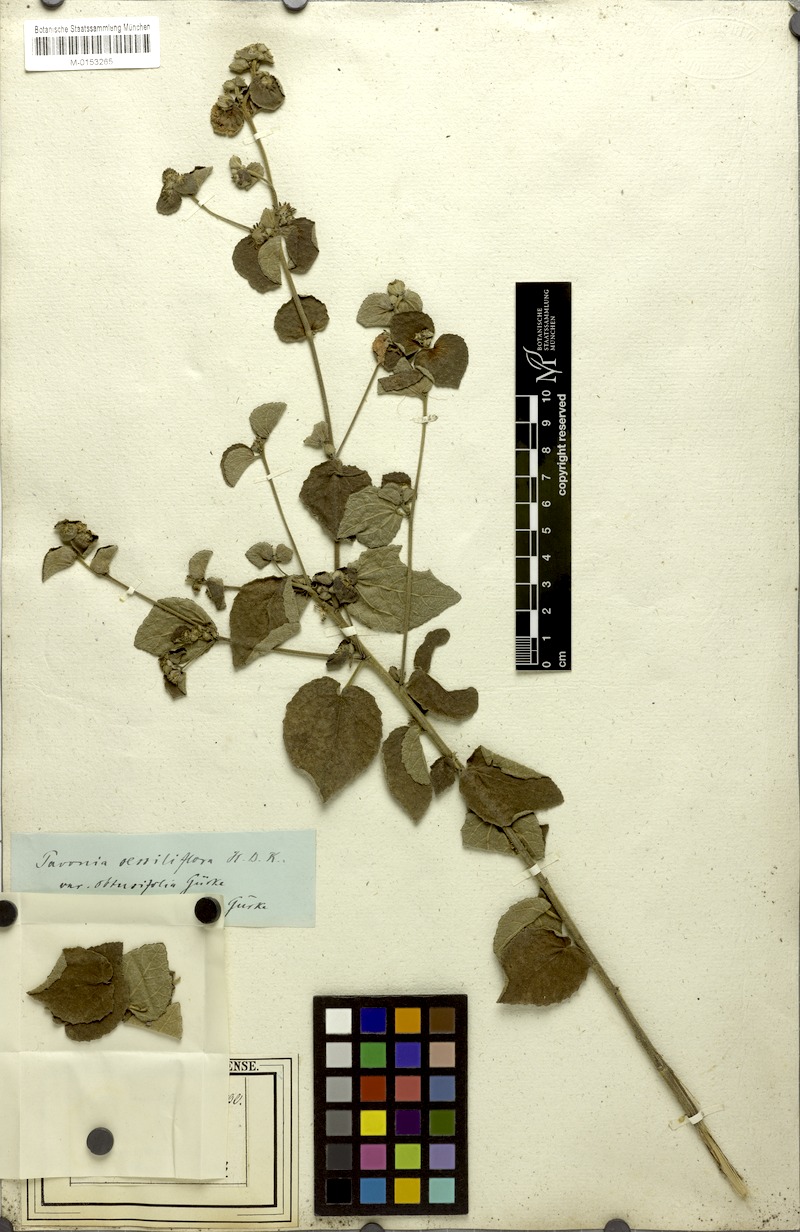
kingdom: Plantae
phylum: Tracheophyta
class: Magnoliopsida
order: Malvales
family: Malvaceae
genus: Peltaea
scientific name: Peltaea trinervis
